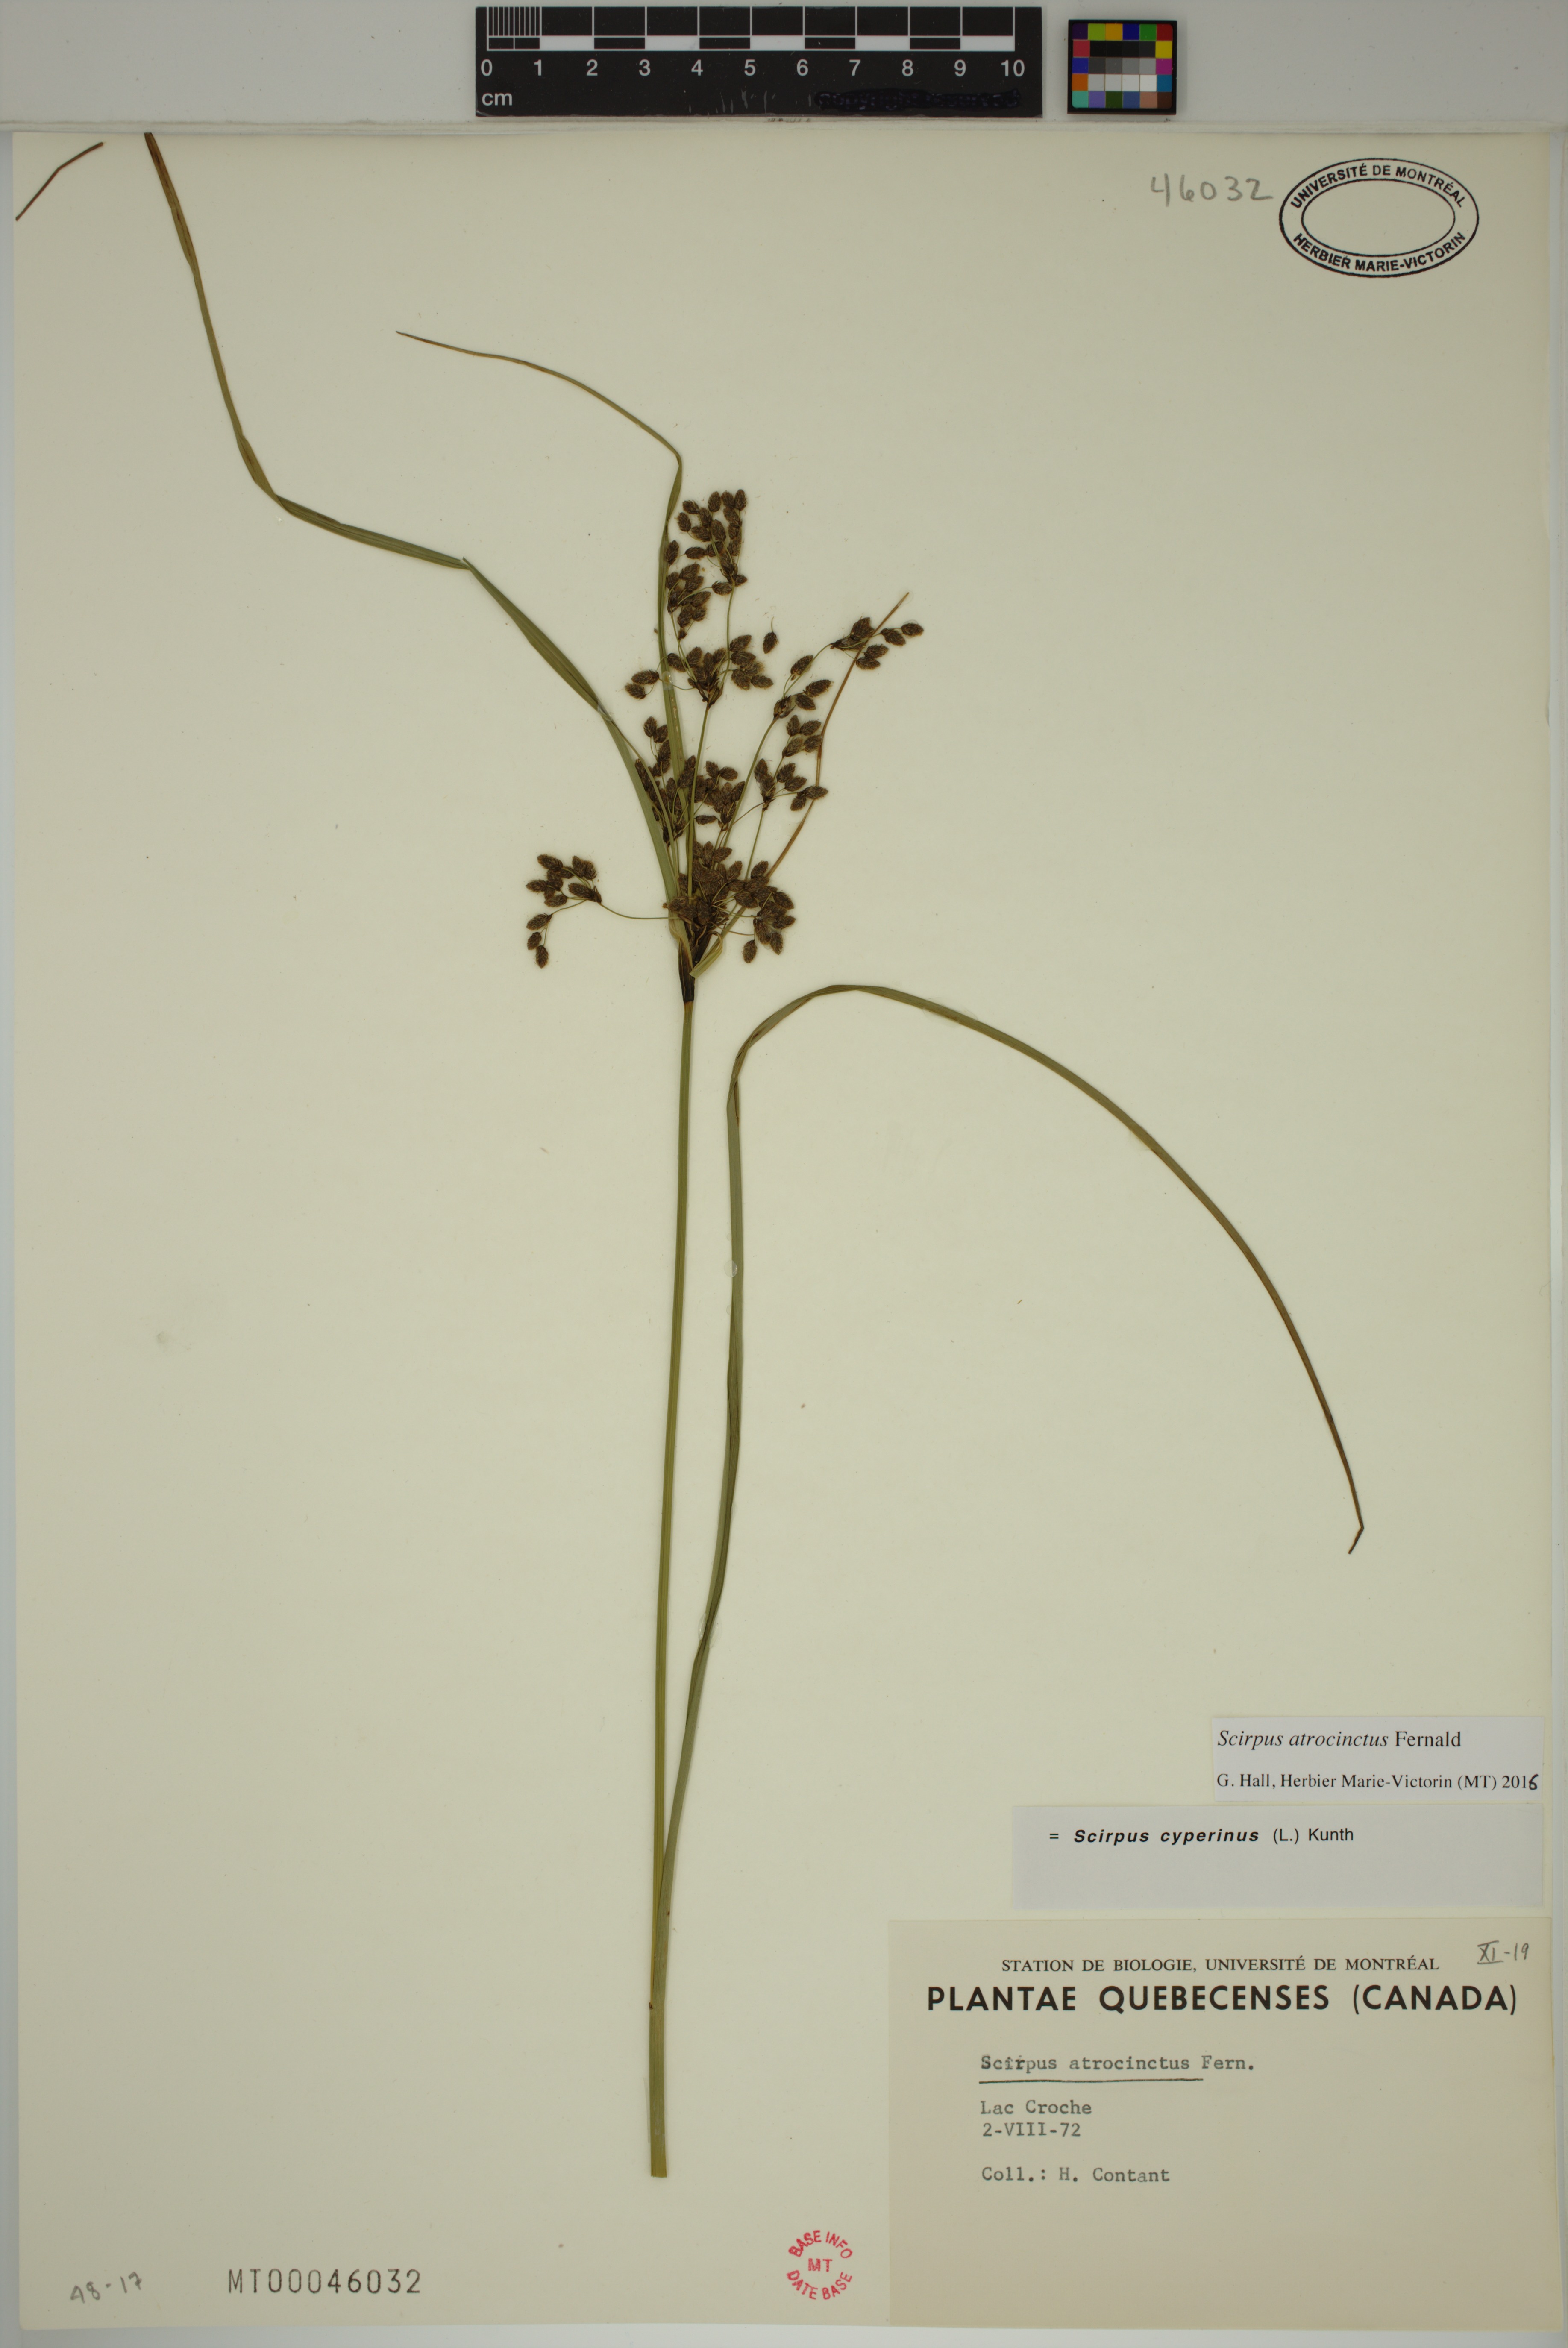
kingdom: Plantae
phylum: Tracheophyta
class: Liliopsida
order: Poales
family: Cyperaceae
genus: Scirpus
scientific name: Scirpus atrocinctus
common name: Black-girdled bulrush
